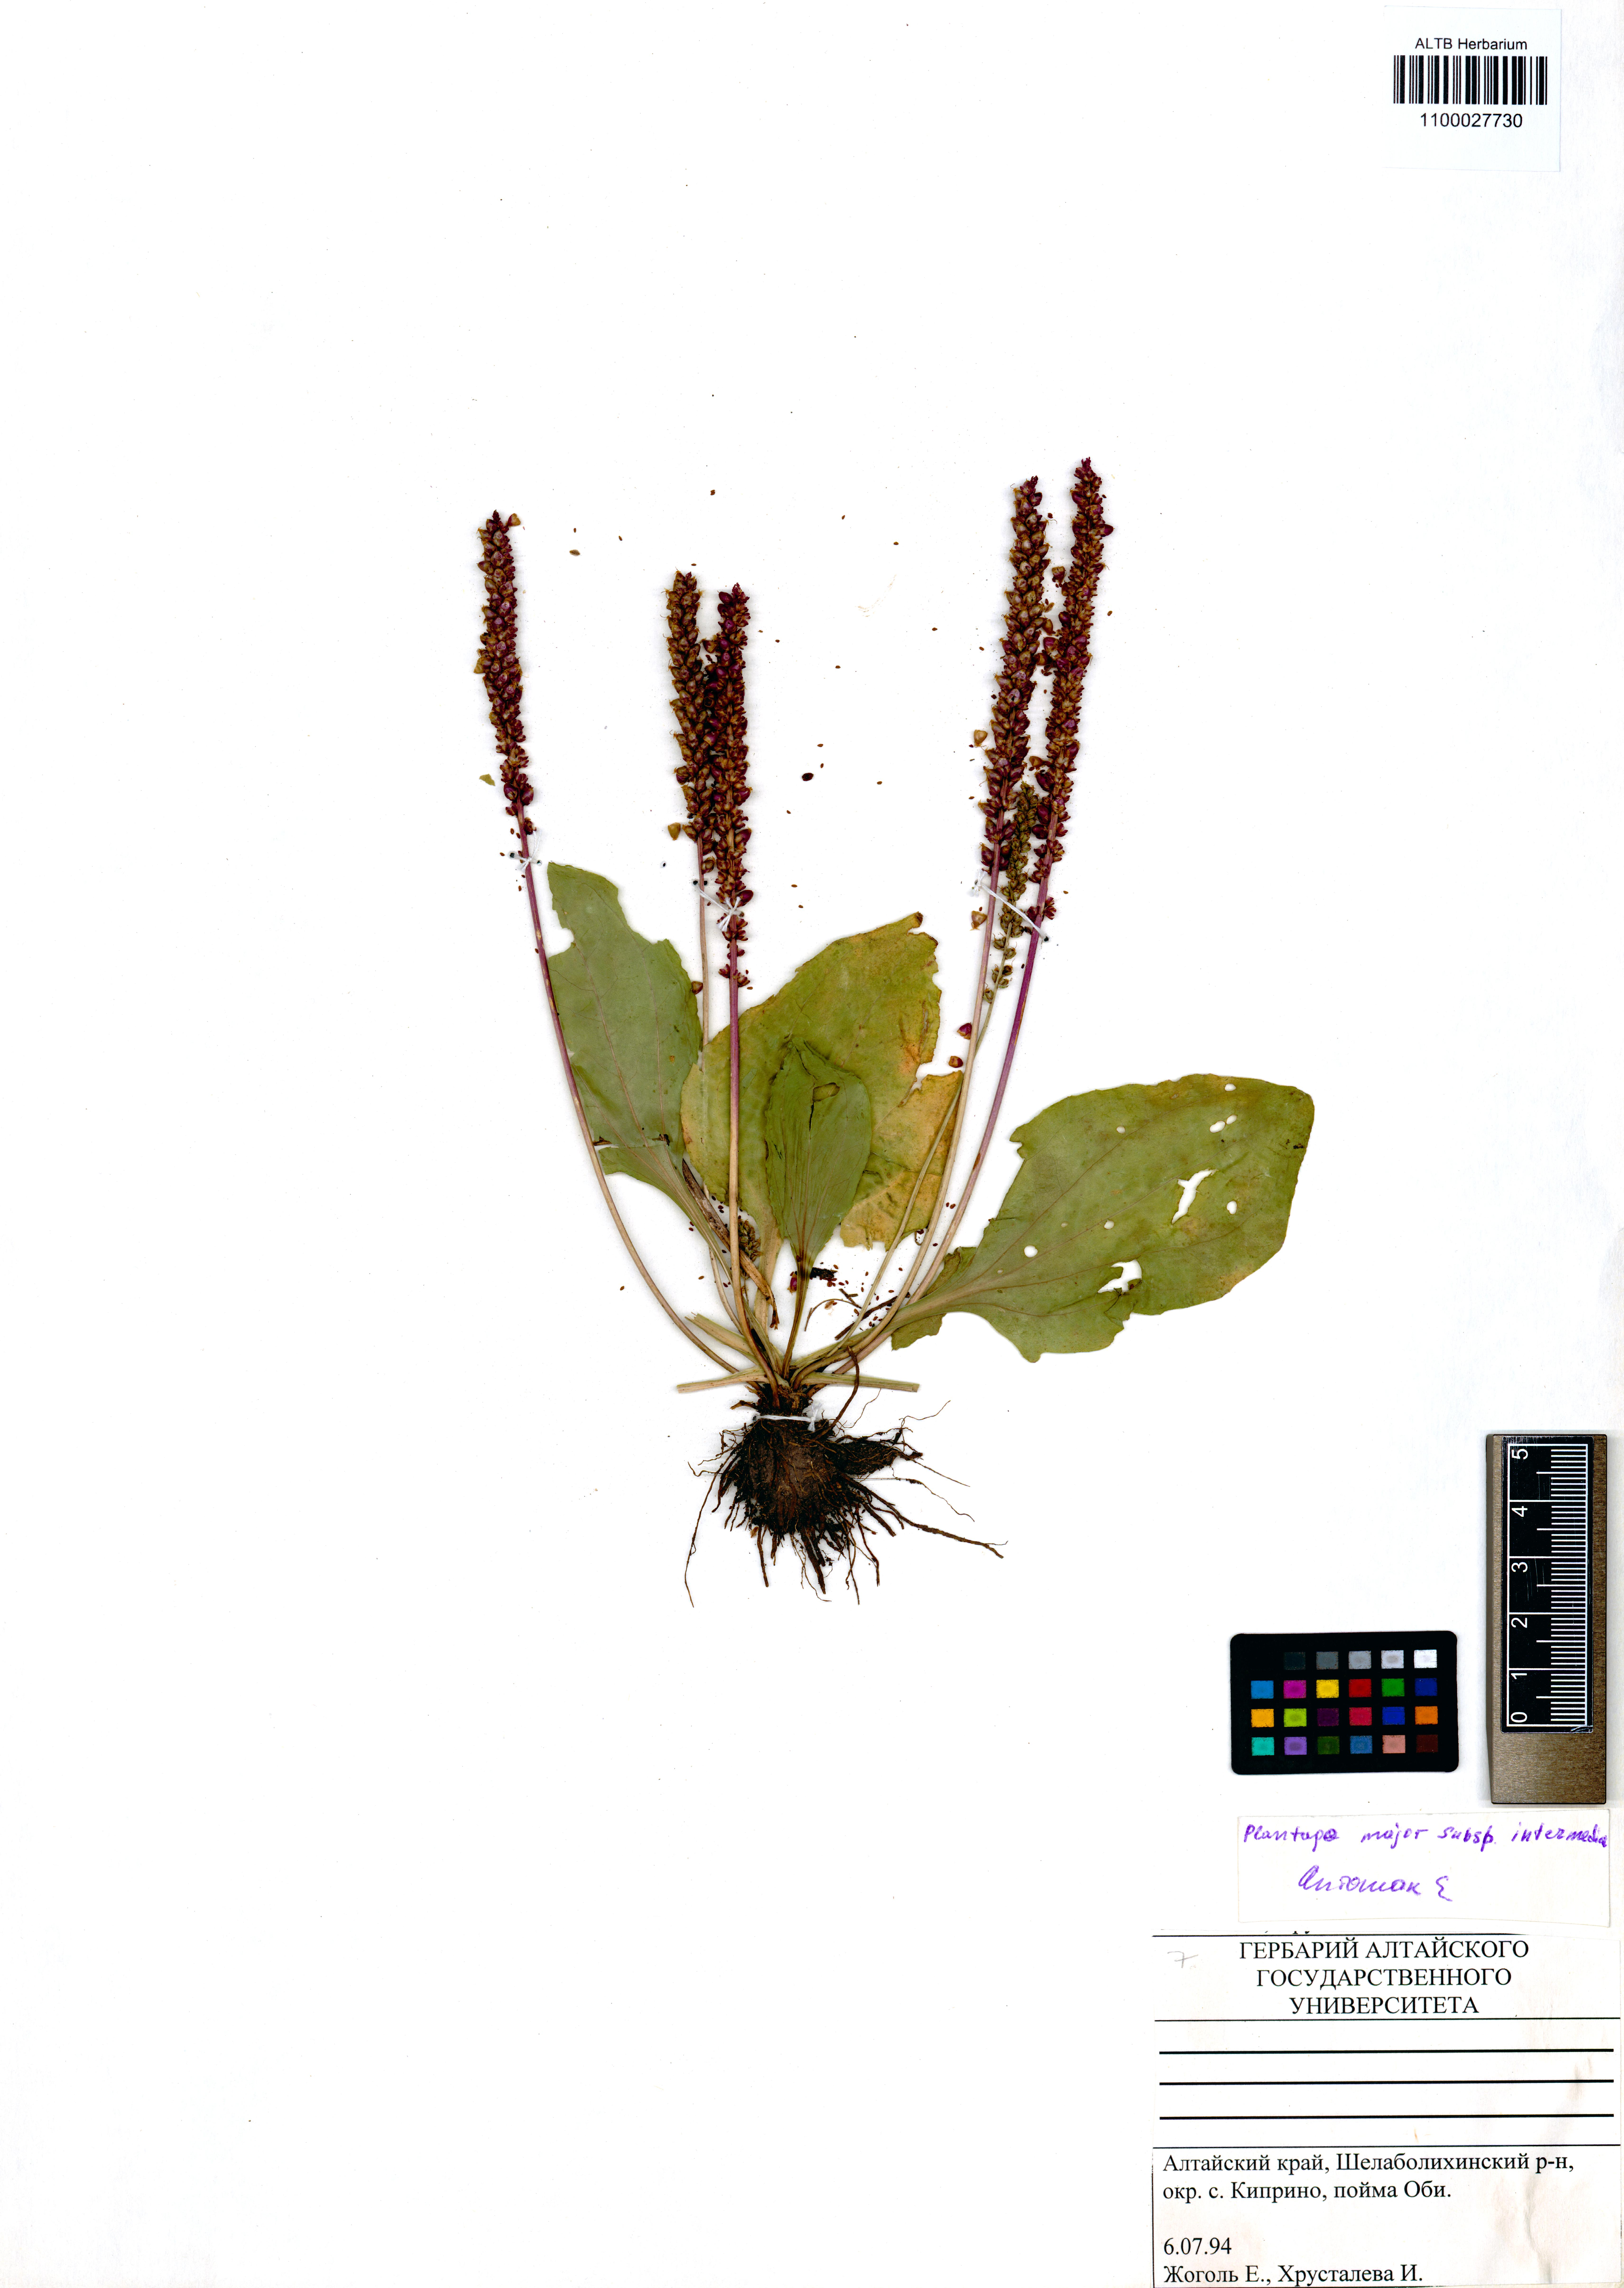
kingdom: Plantae
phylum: Tracheophyta
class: Magnoliopsida
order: Lamiales
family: Plantaginaceae
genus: Plantago
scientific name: Plantago uliginosa
